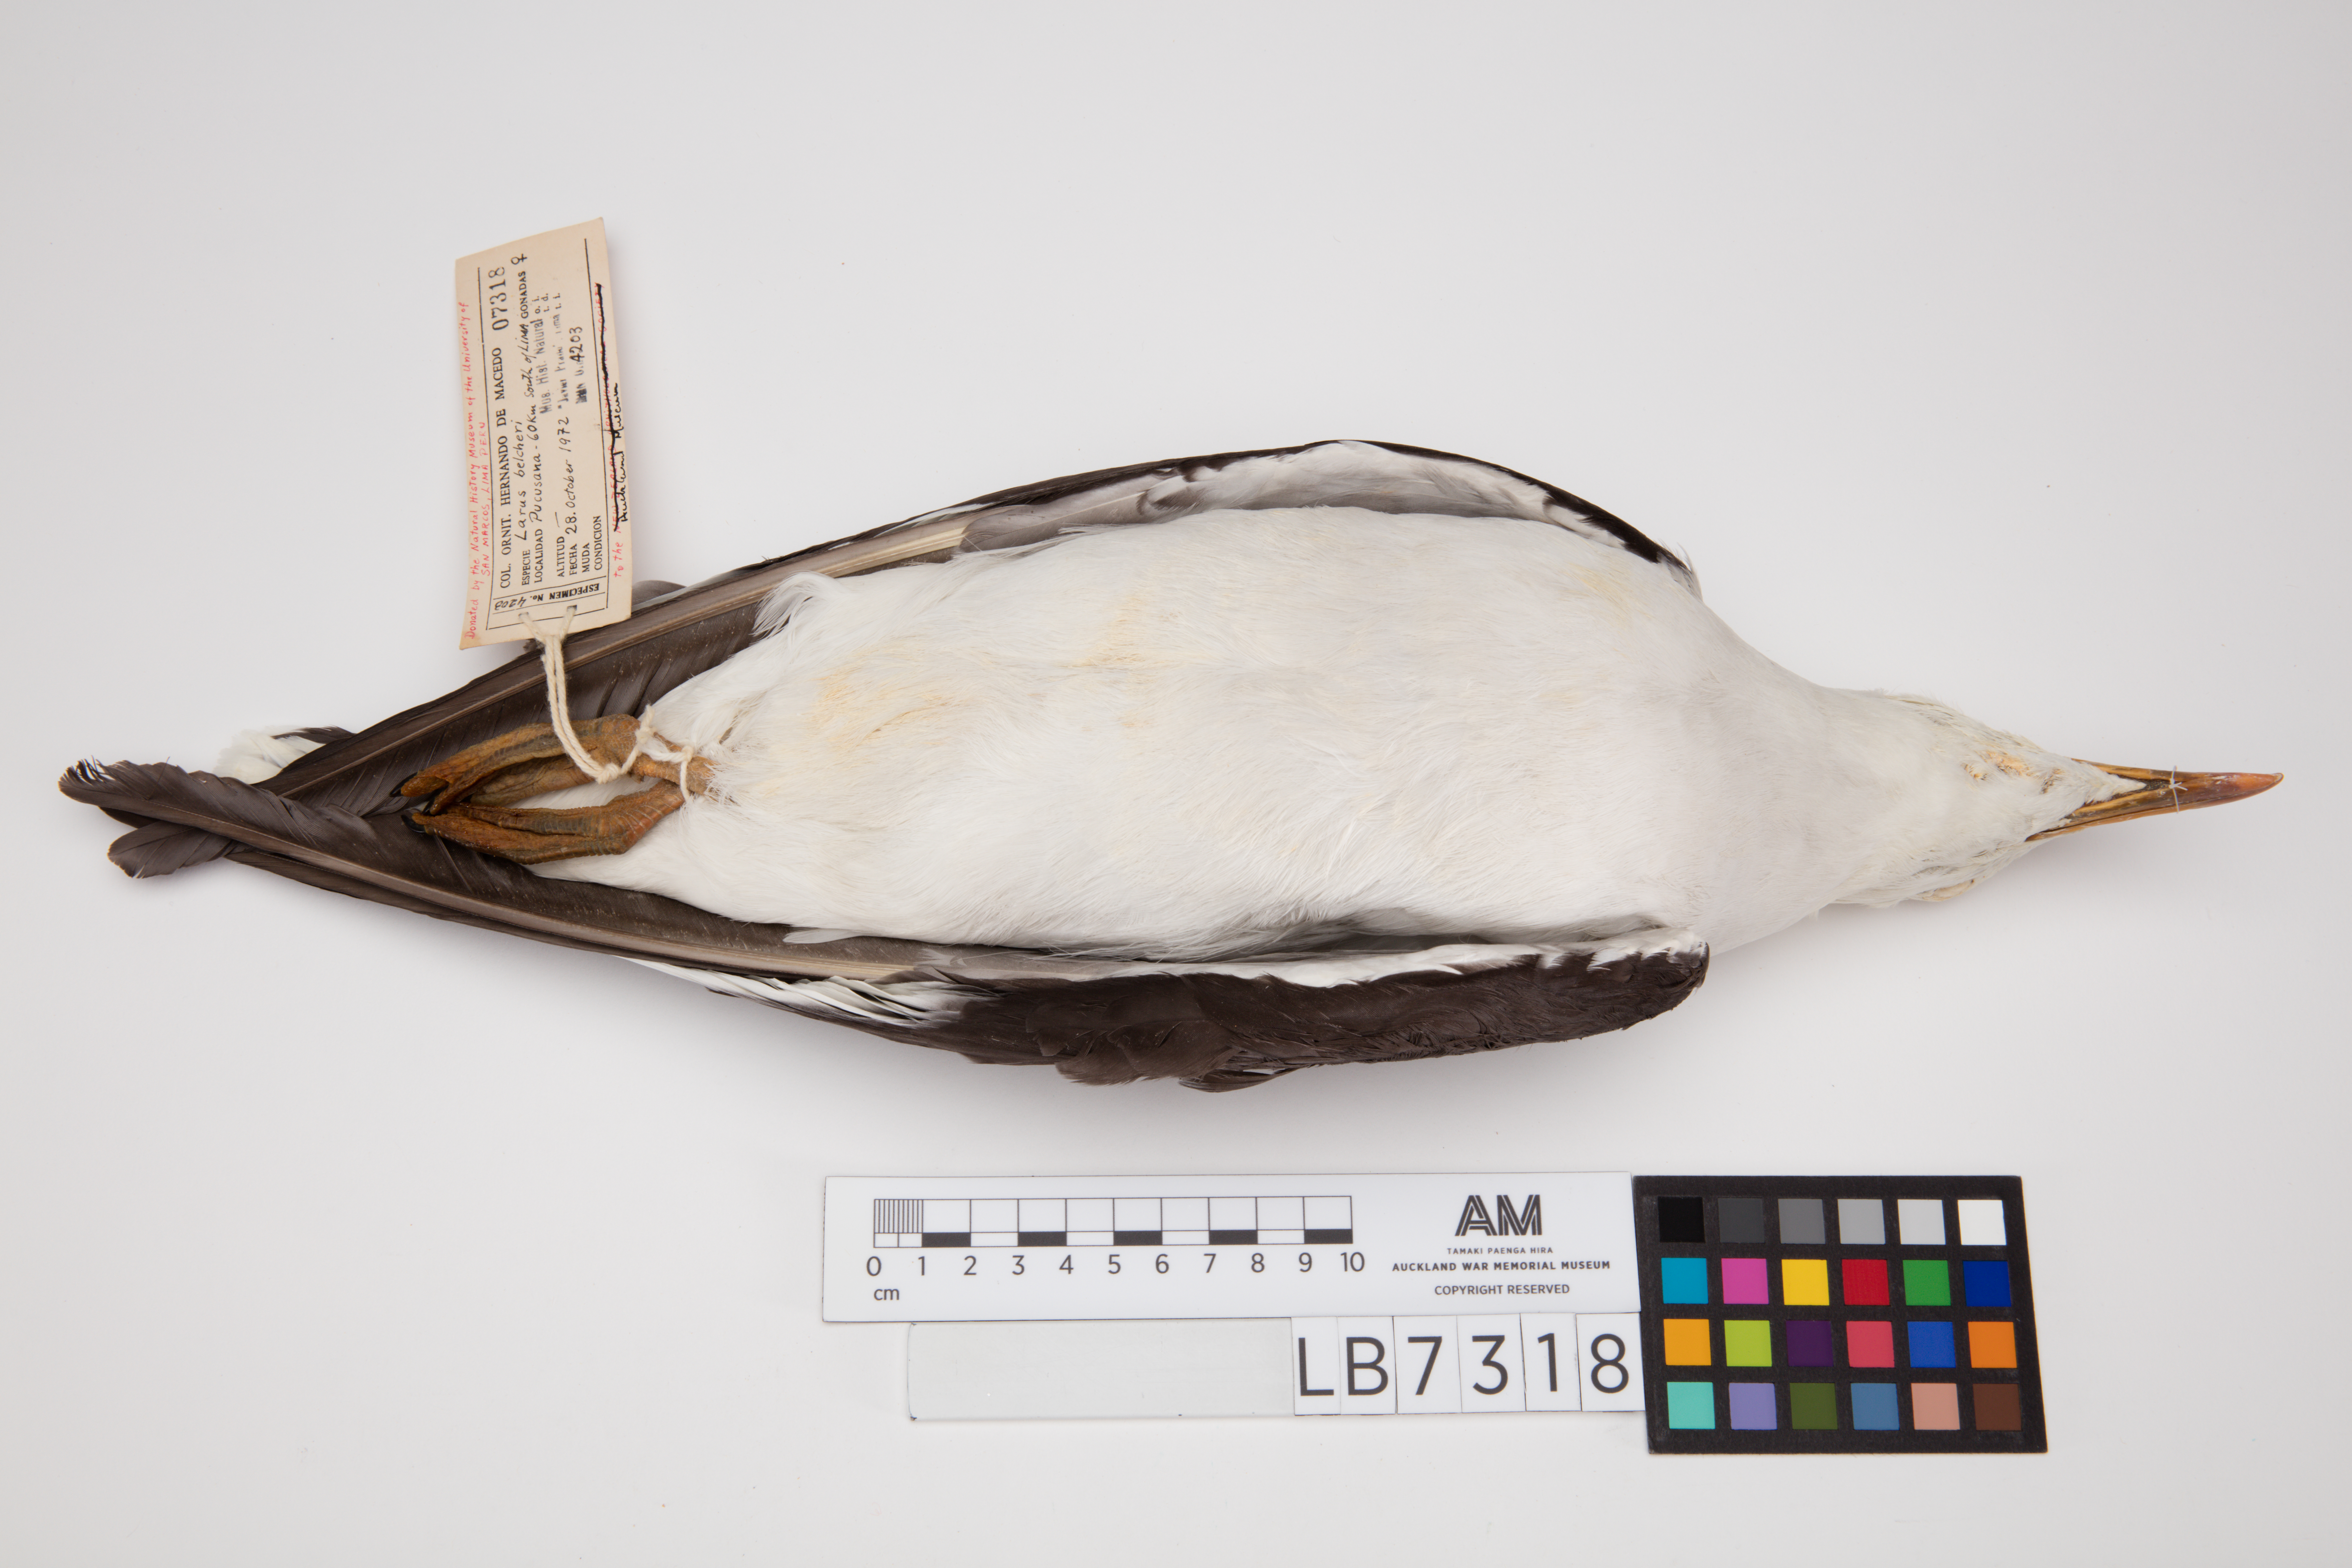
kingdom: Animalia
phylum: Chordata
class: Aves
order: Charadriiformes
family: Laridae
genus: Larus
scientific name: Larus belcheri
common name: Belcher's gull
